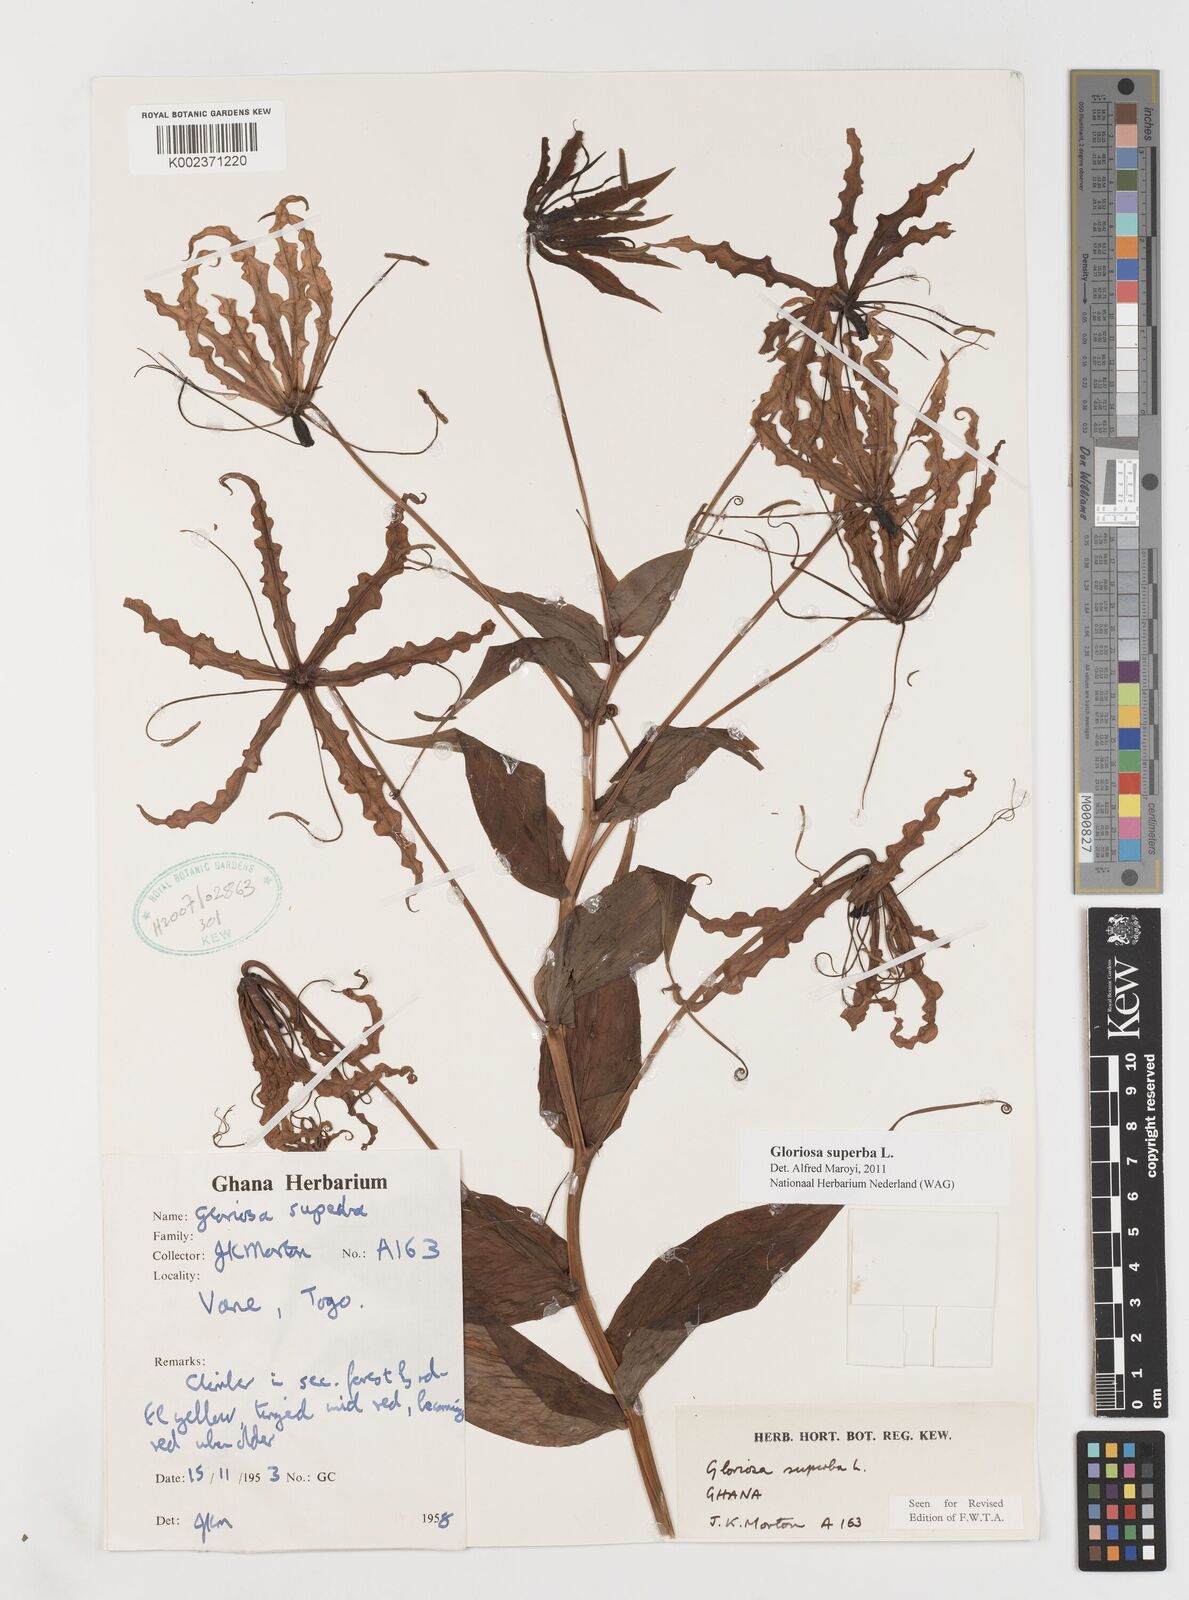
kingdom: Plantae
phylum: Tracheophyta
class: Liliopsida
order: Liliales
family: Colchicaceae
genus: Gloriosa
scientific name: Gloriosa superba
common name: Flame lily
